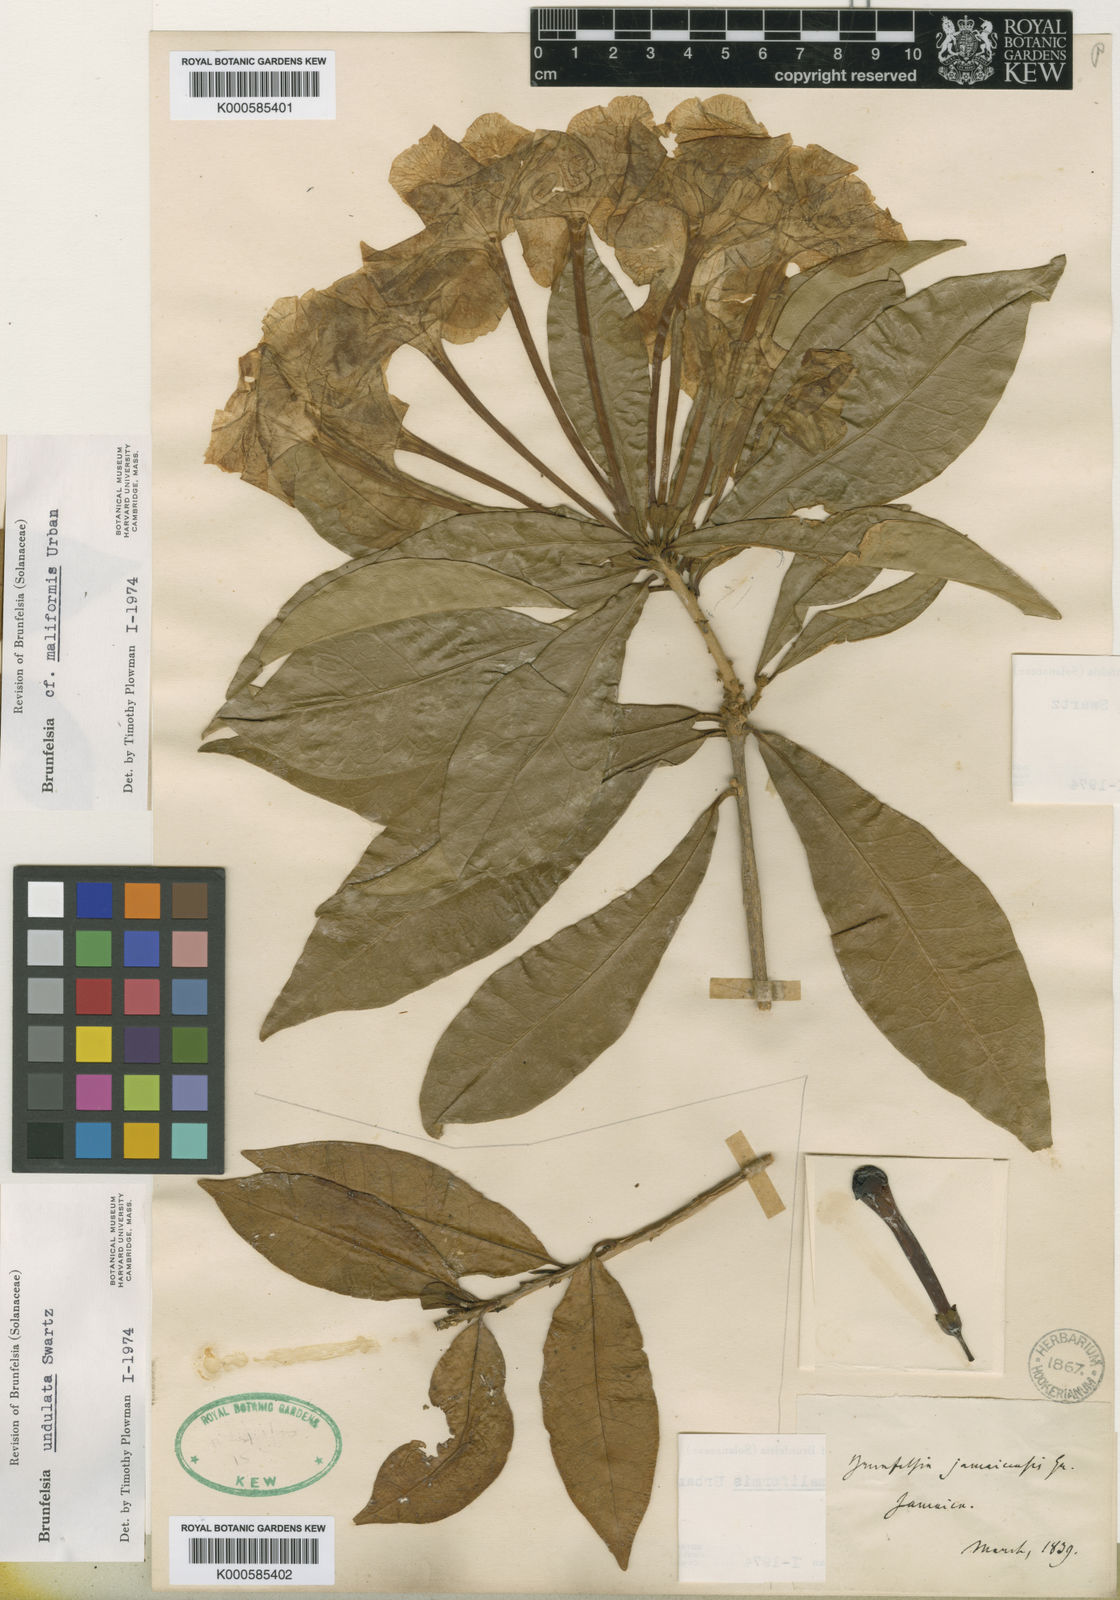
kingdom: Plantae
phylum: Tracheophyta
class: Magnoliopsida
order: Solanales
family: Solanaceae
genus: Brunfelsia
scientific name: Brunfelsia undulata
